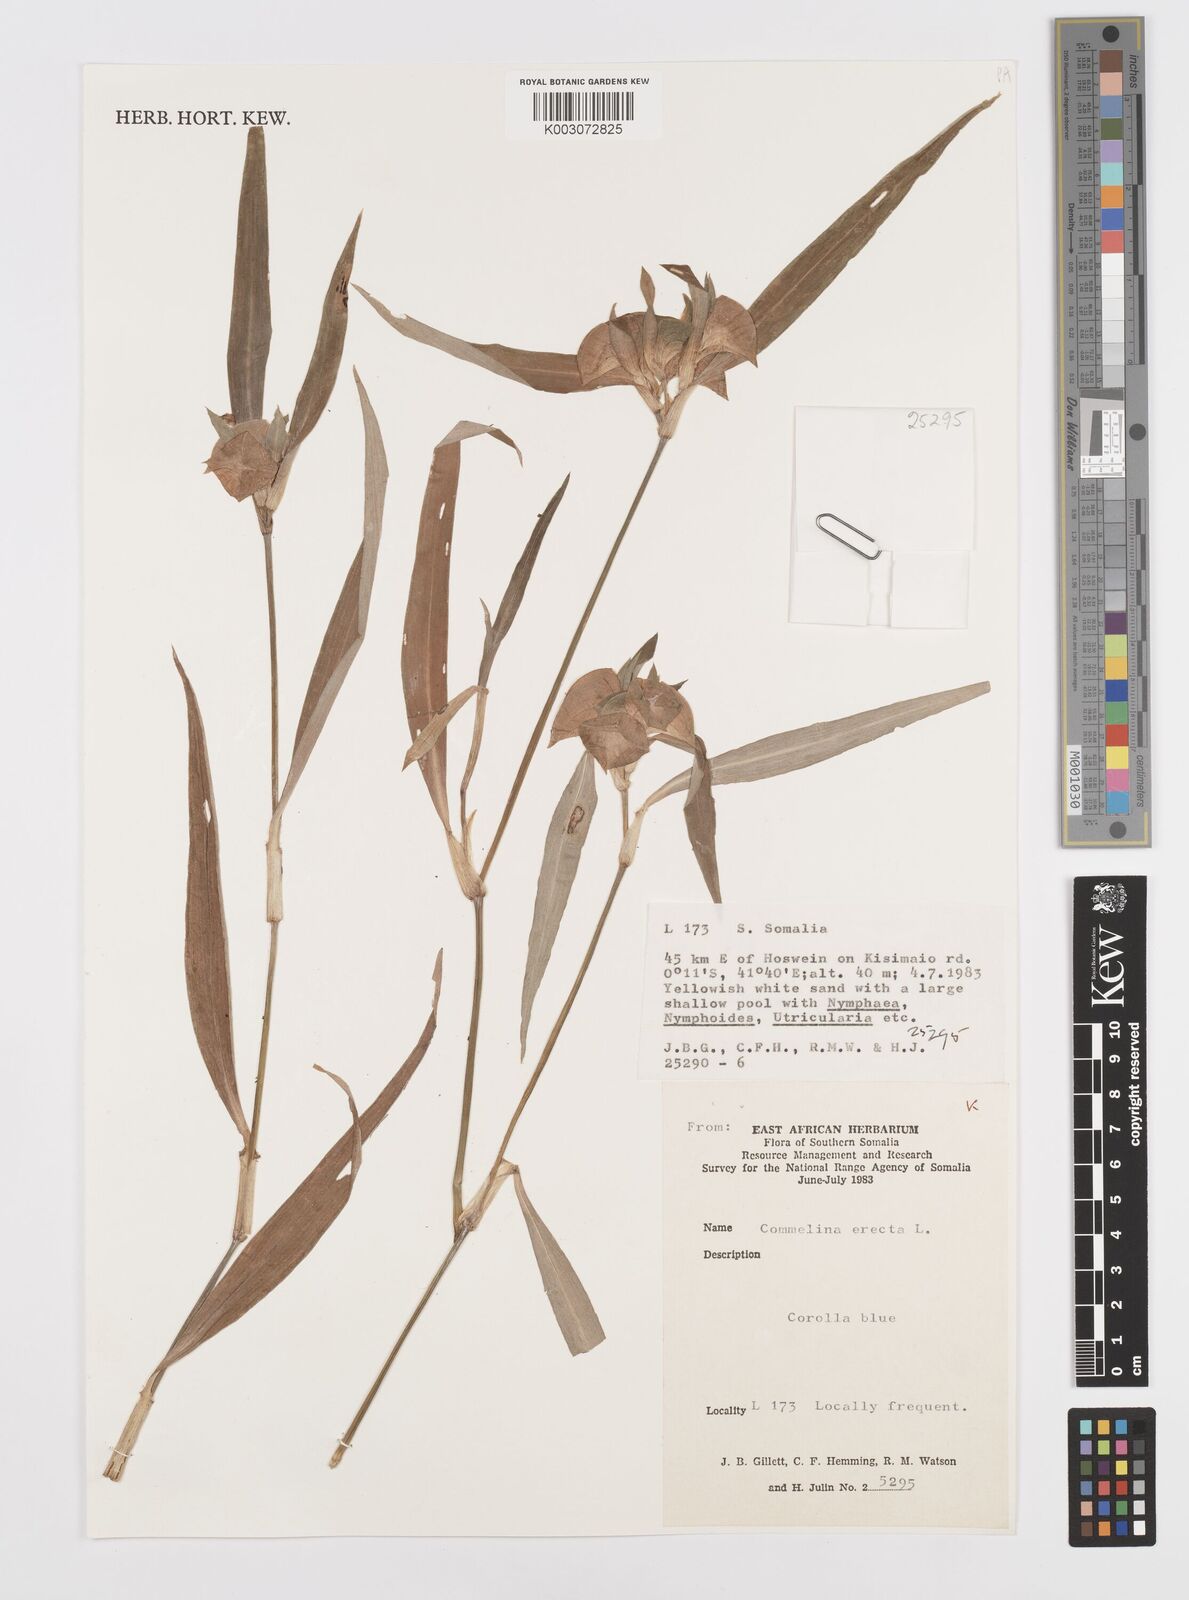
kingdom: Plantae
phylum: Tracheophyta
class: Liliopsida
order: Commelinales
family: Commelinaceae
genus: Commelina
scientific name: Commelina erecta
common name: Blousel blommetjie
